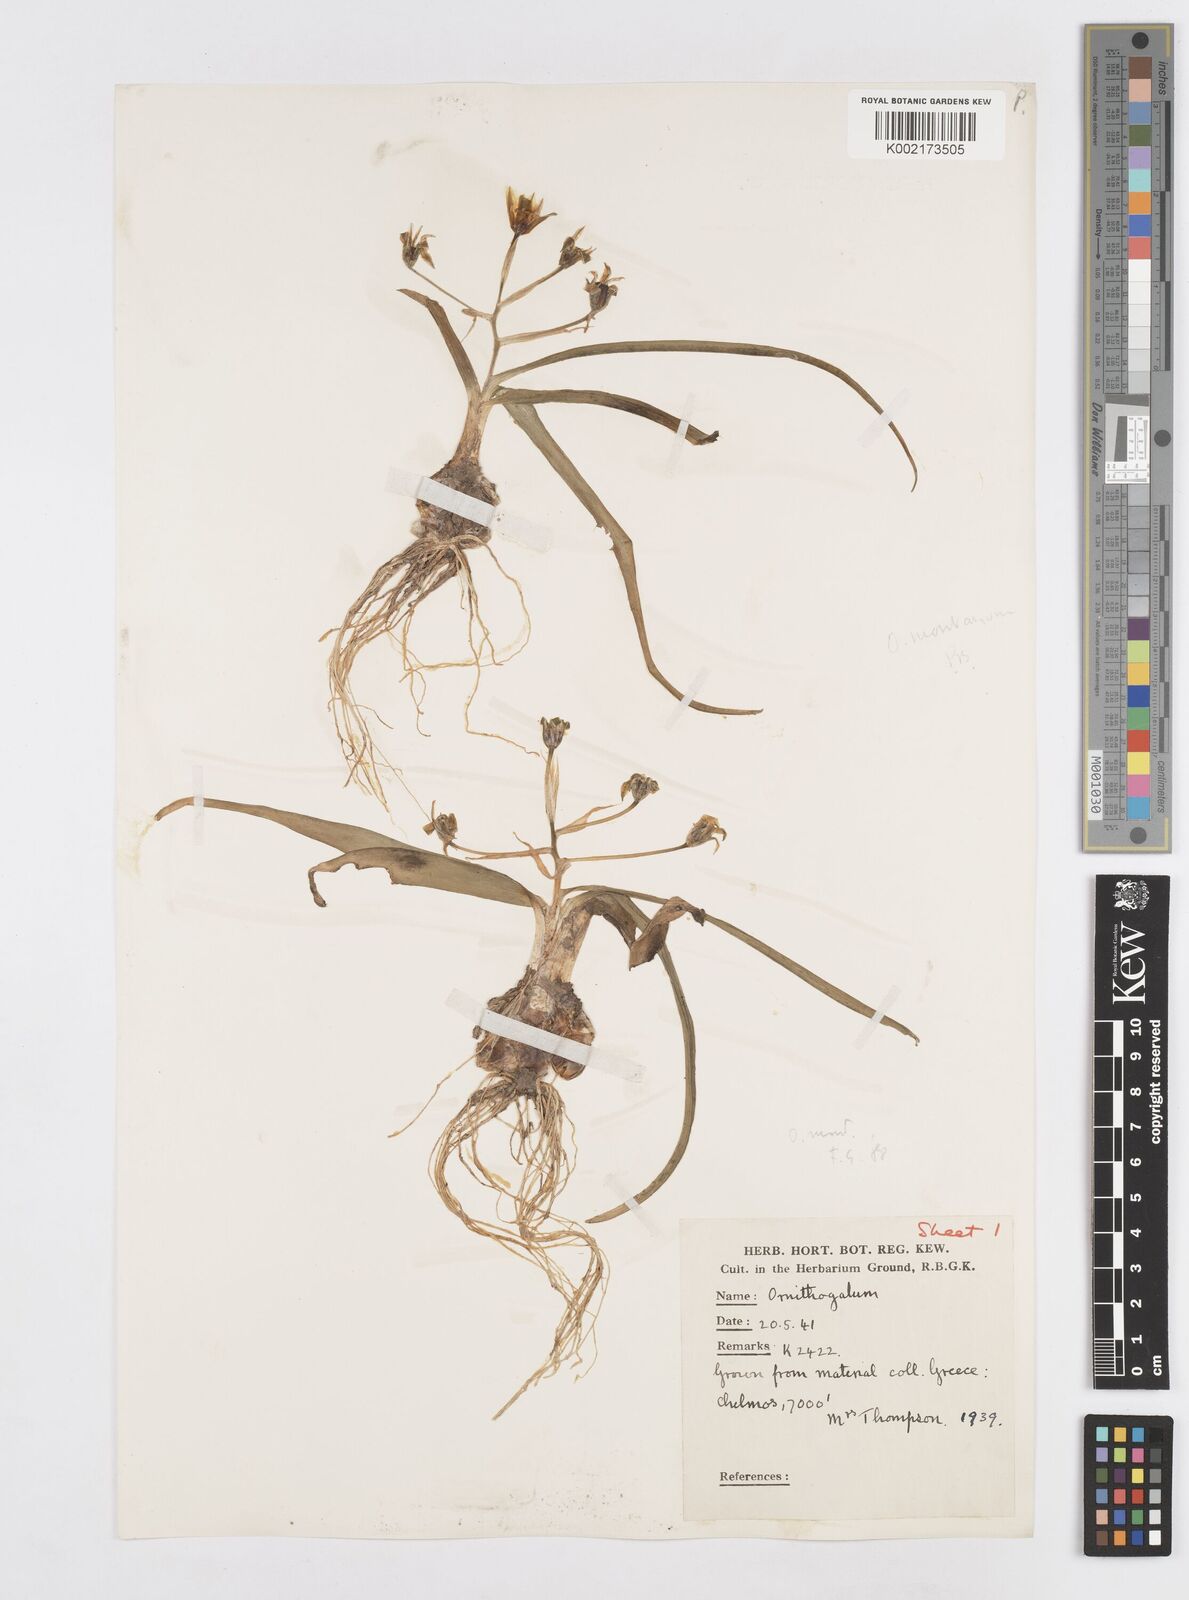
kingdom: Plantae
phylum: Tracheophyta
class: Liliopsida
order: Asparagales
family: Asparagaceae
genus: Ornithogalum
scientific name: Ornithogalum montanum
